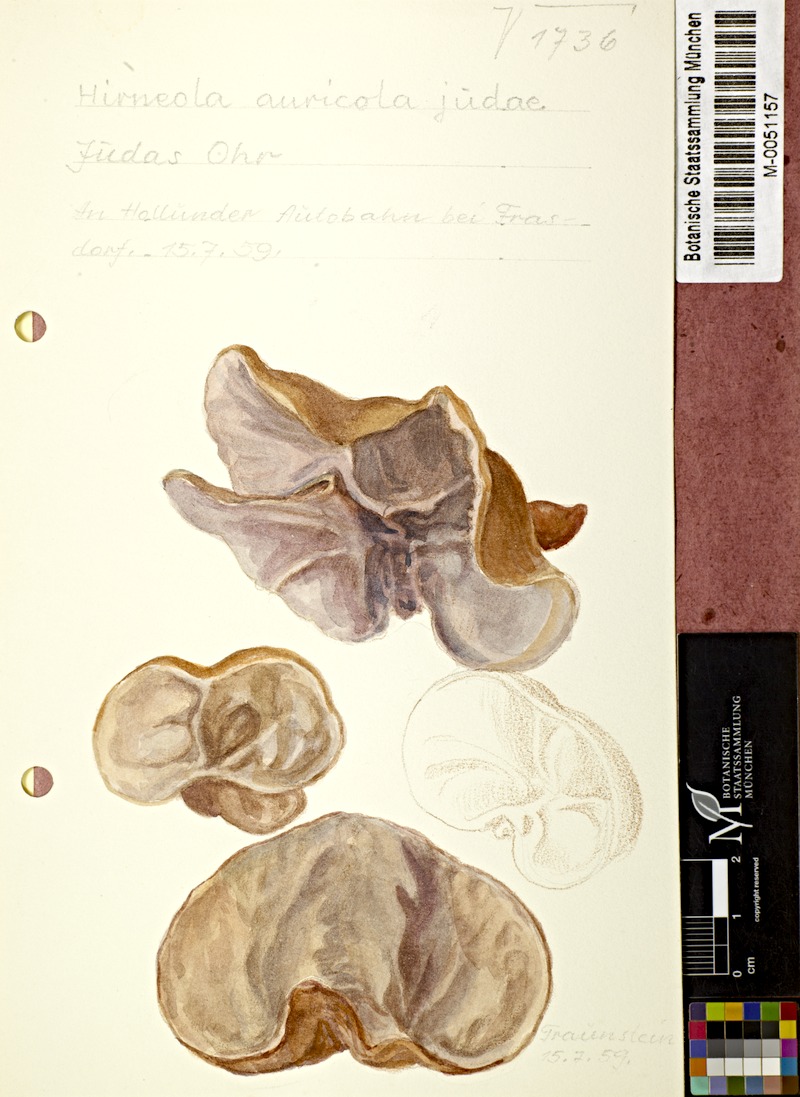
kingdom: Fungi
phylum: Basidiomycota
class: Agaricomycetes
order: Auriculariales
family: Auriculariaceae
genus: Auricularia
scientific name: Auricularia auricula-judae
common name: Jelly ear
